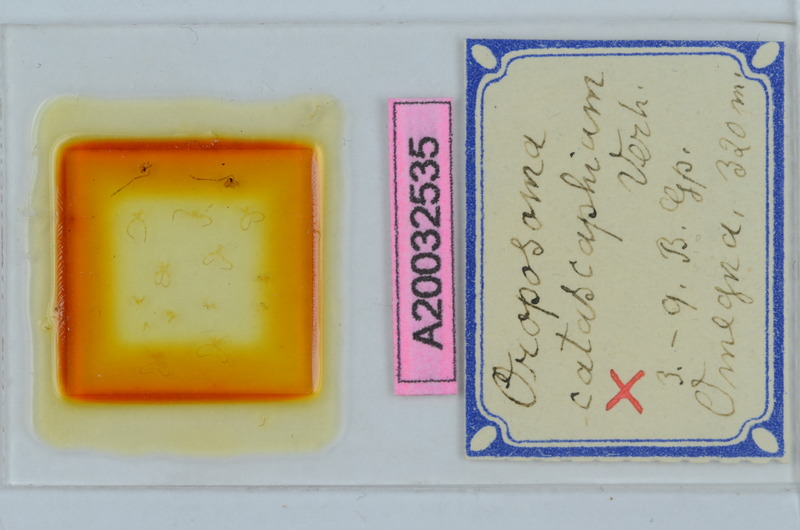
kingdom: Animalia
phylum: Arthropoda
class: Diplopoda
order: Chordeumatida
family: Craspedosomatidae
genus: Oroposoma
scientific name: Oroposoma catascaphium
